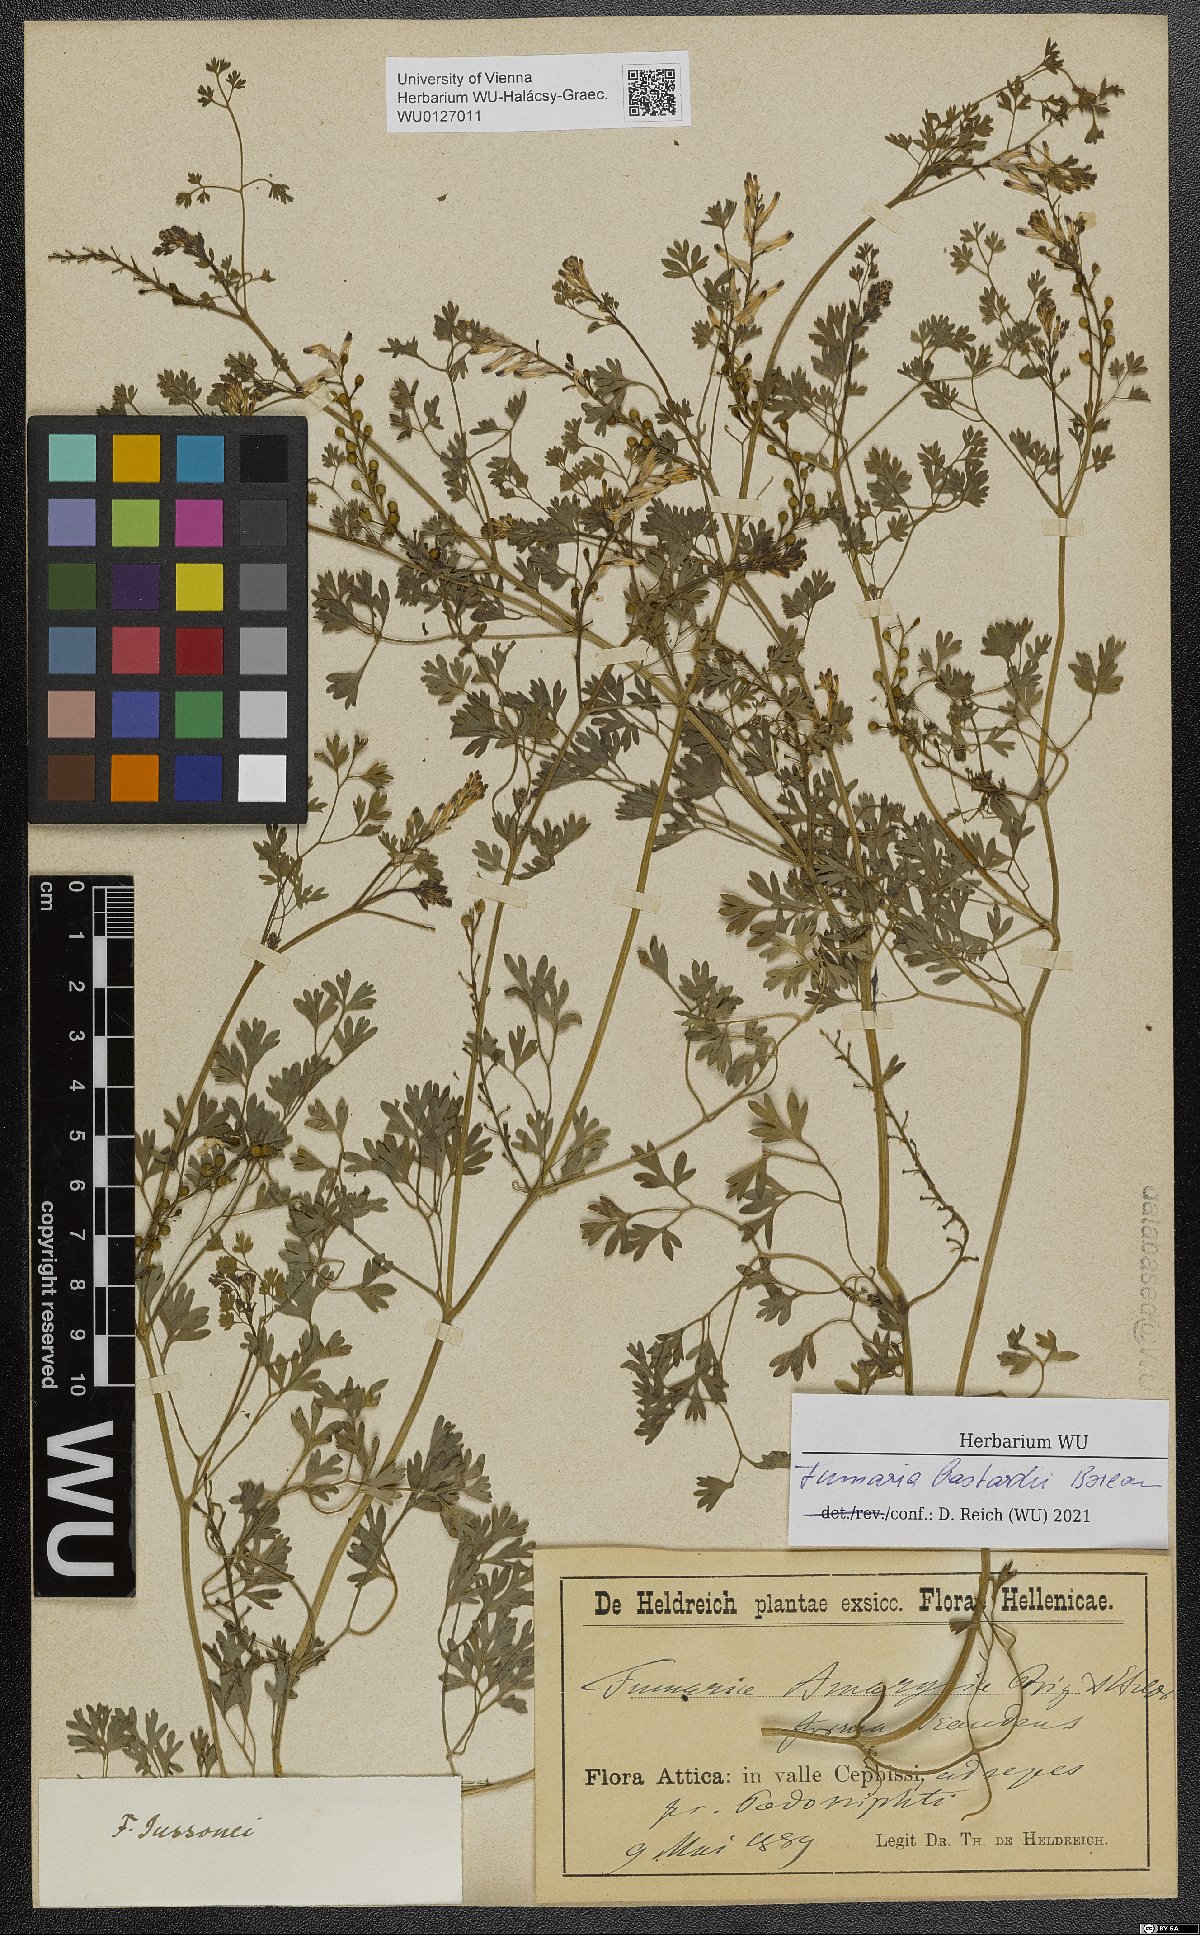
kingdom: Plantae
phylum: Tracheophyta
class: Magnoliopsida
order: Ranunculales
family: Papaveraceae
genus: Fumaria
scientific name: Fumaria bastardii
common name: Tall ramping-fumitory
